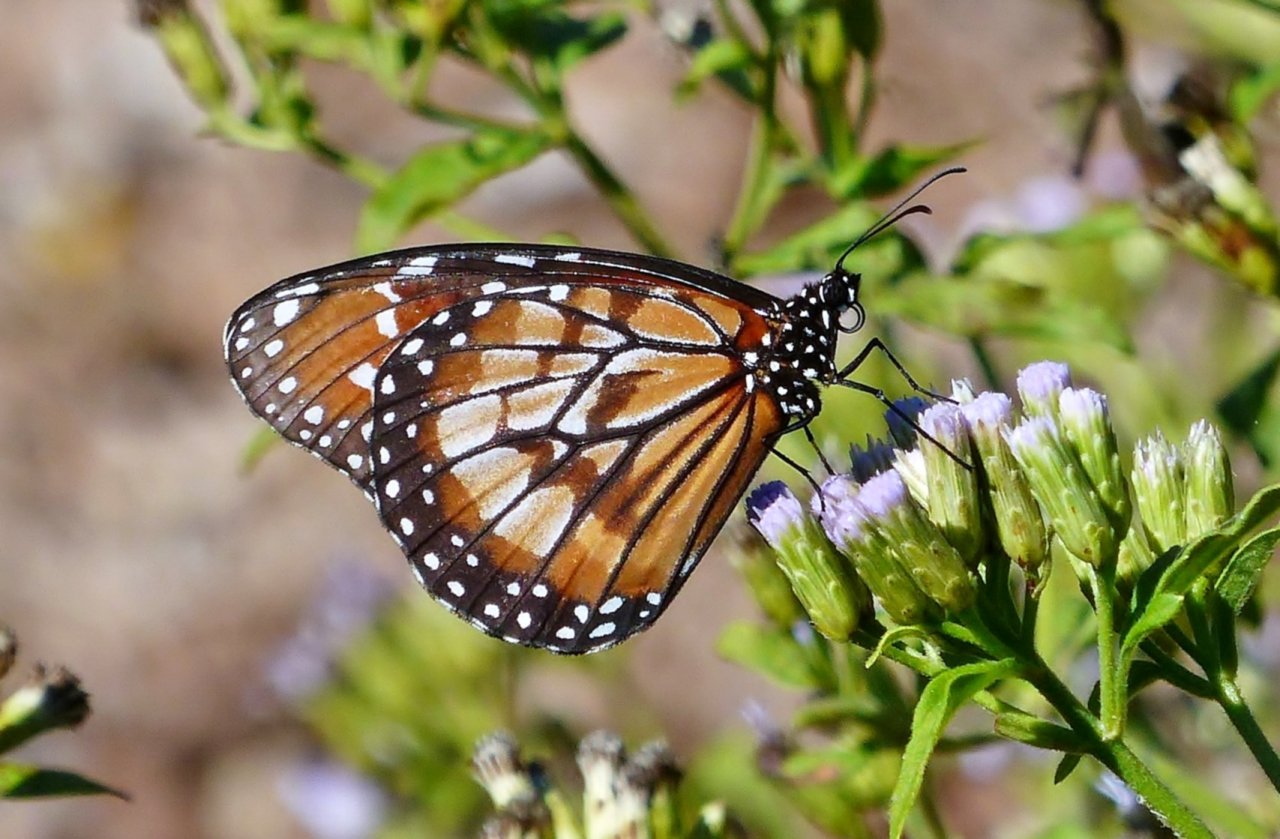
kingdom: Animalia
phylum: Arthropoda
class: Insecta
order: Lepidoptera
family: Nymphalidae
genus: Danaus
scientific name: Danaus eresimus
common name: Soldier
